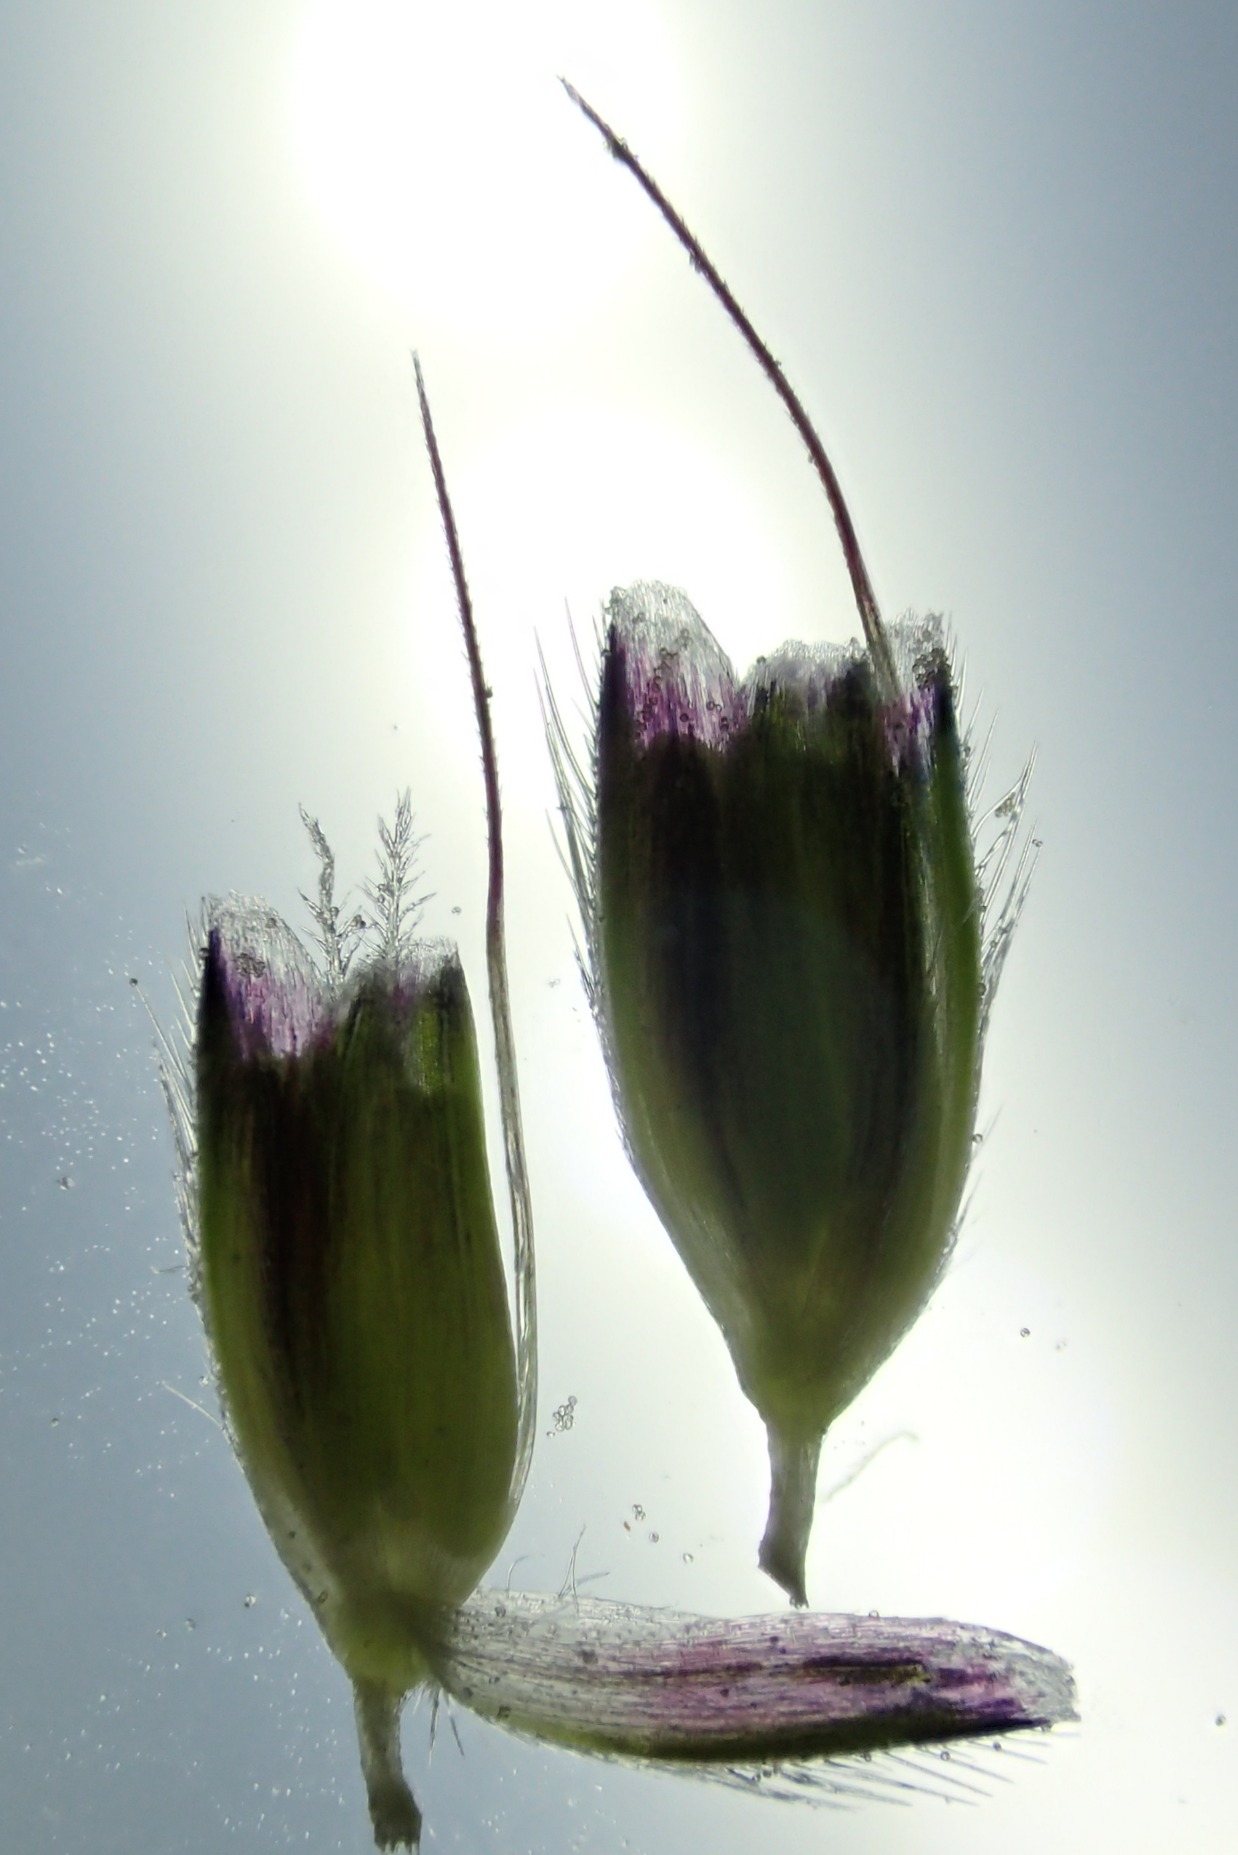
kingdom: Plantae
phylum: Tracheophyta
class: Liliopsida
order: Poales
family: Poaceae
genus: Alopecurus
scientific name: Alopecurus geniculatus
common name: Knæbøjet rævehale
